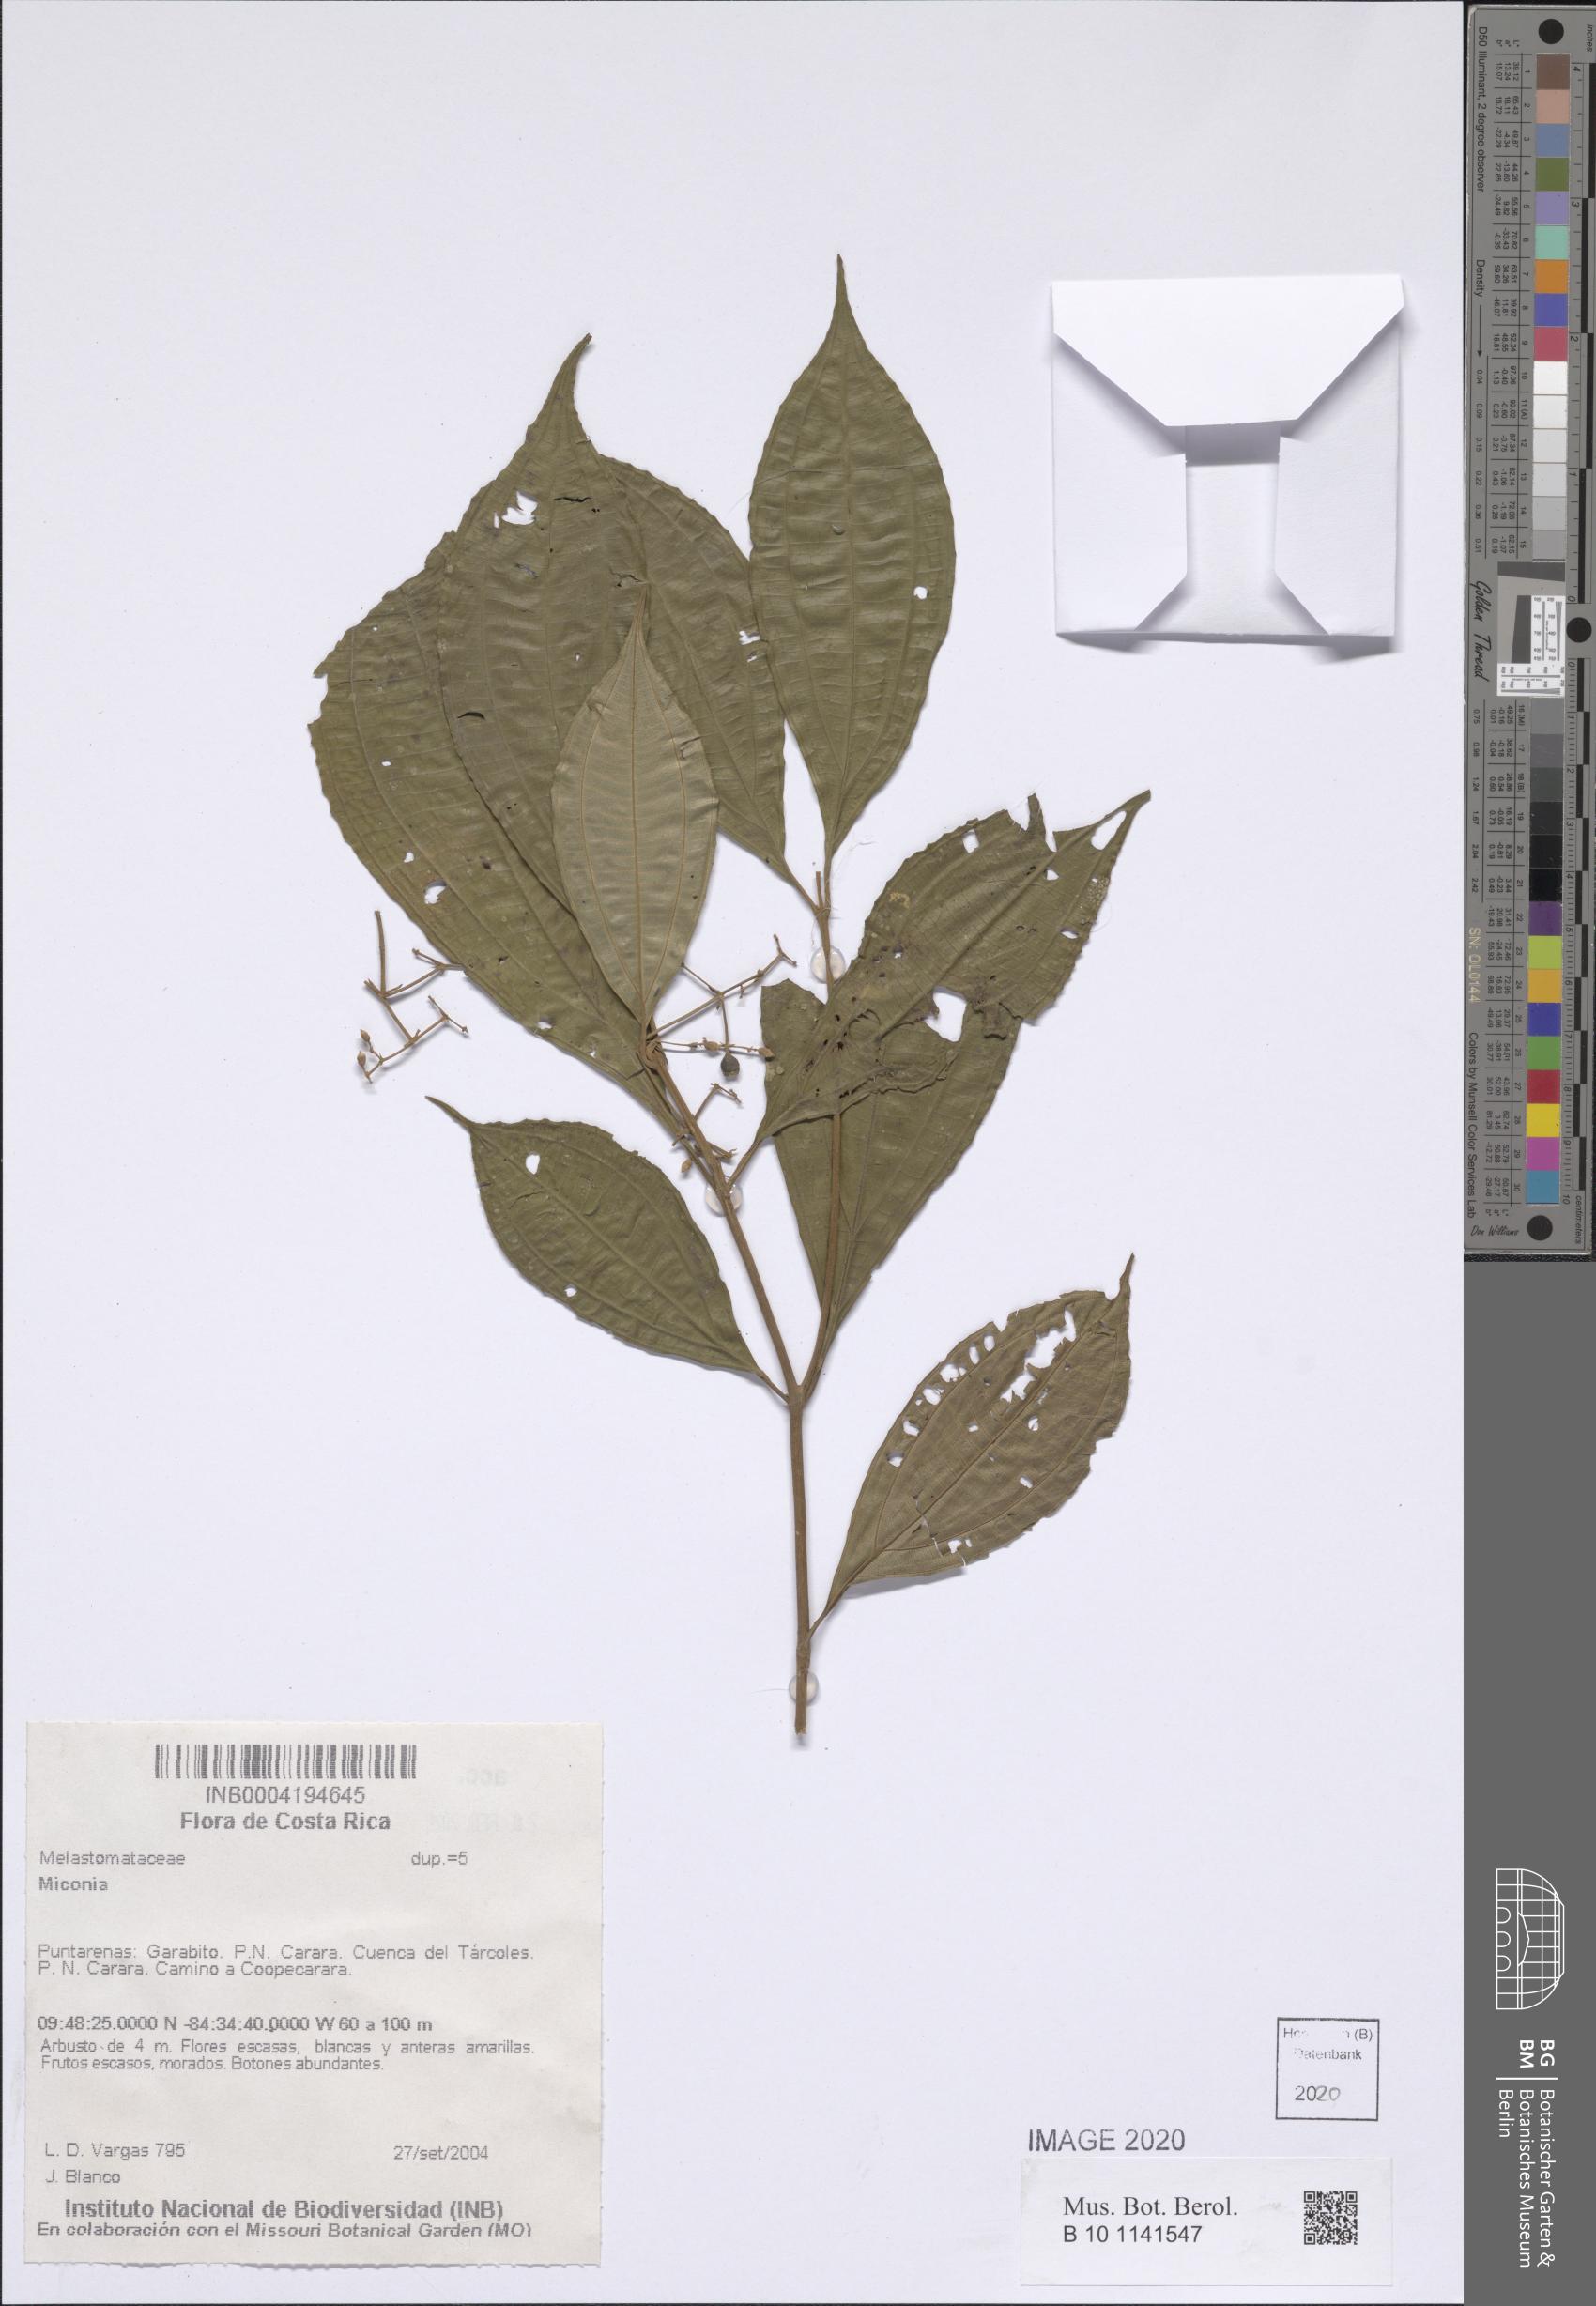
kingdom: Plantae
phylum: Tracheophyta
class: Magnoliopsida
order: Myrtales
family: Melastomataceae
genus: Miconia
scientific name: Miconia
